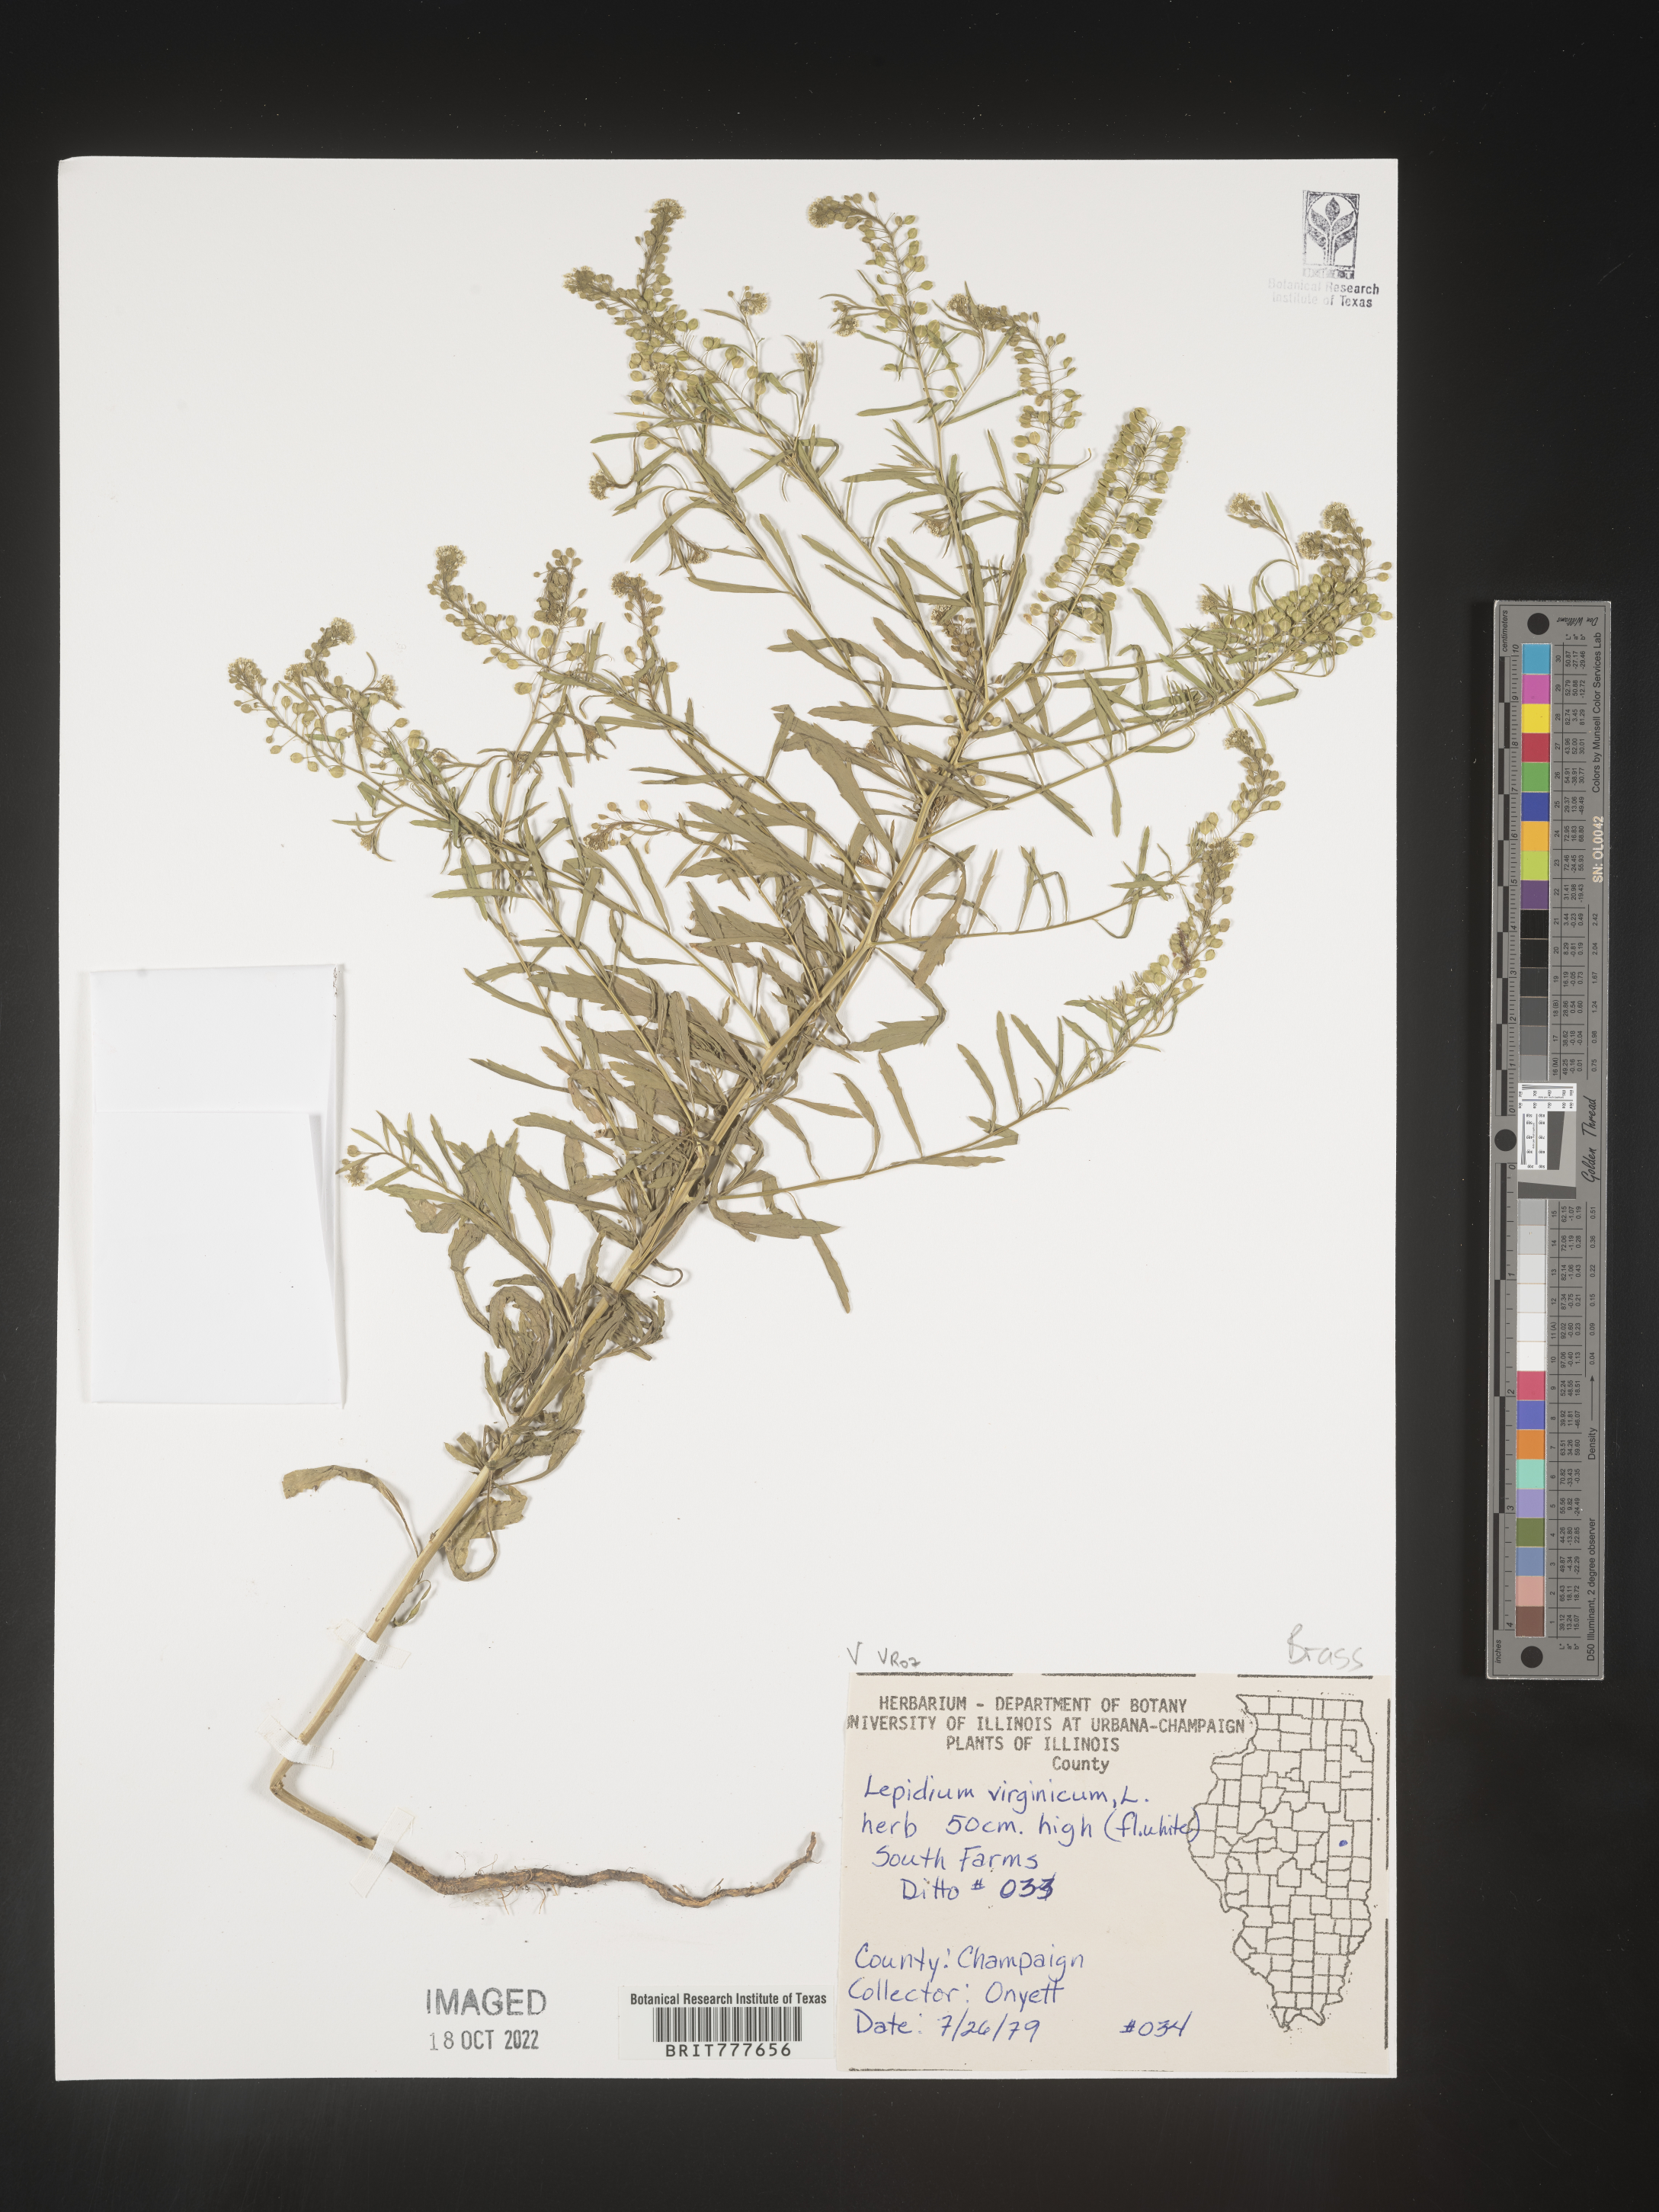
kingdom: Plantae
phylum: Tracheophyta
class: Magnoliopsida
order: Brassicales
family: Brassicaceae
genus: Lepidium
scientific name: Lepidium virginicum
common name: Least pepperwort
